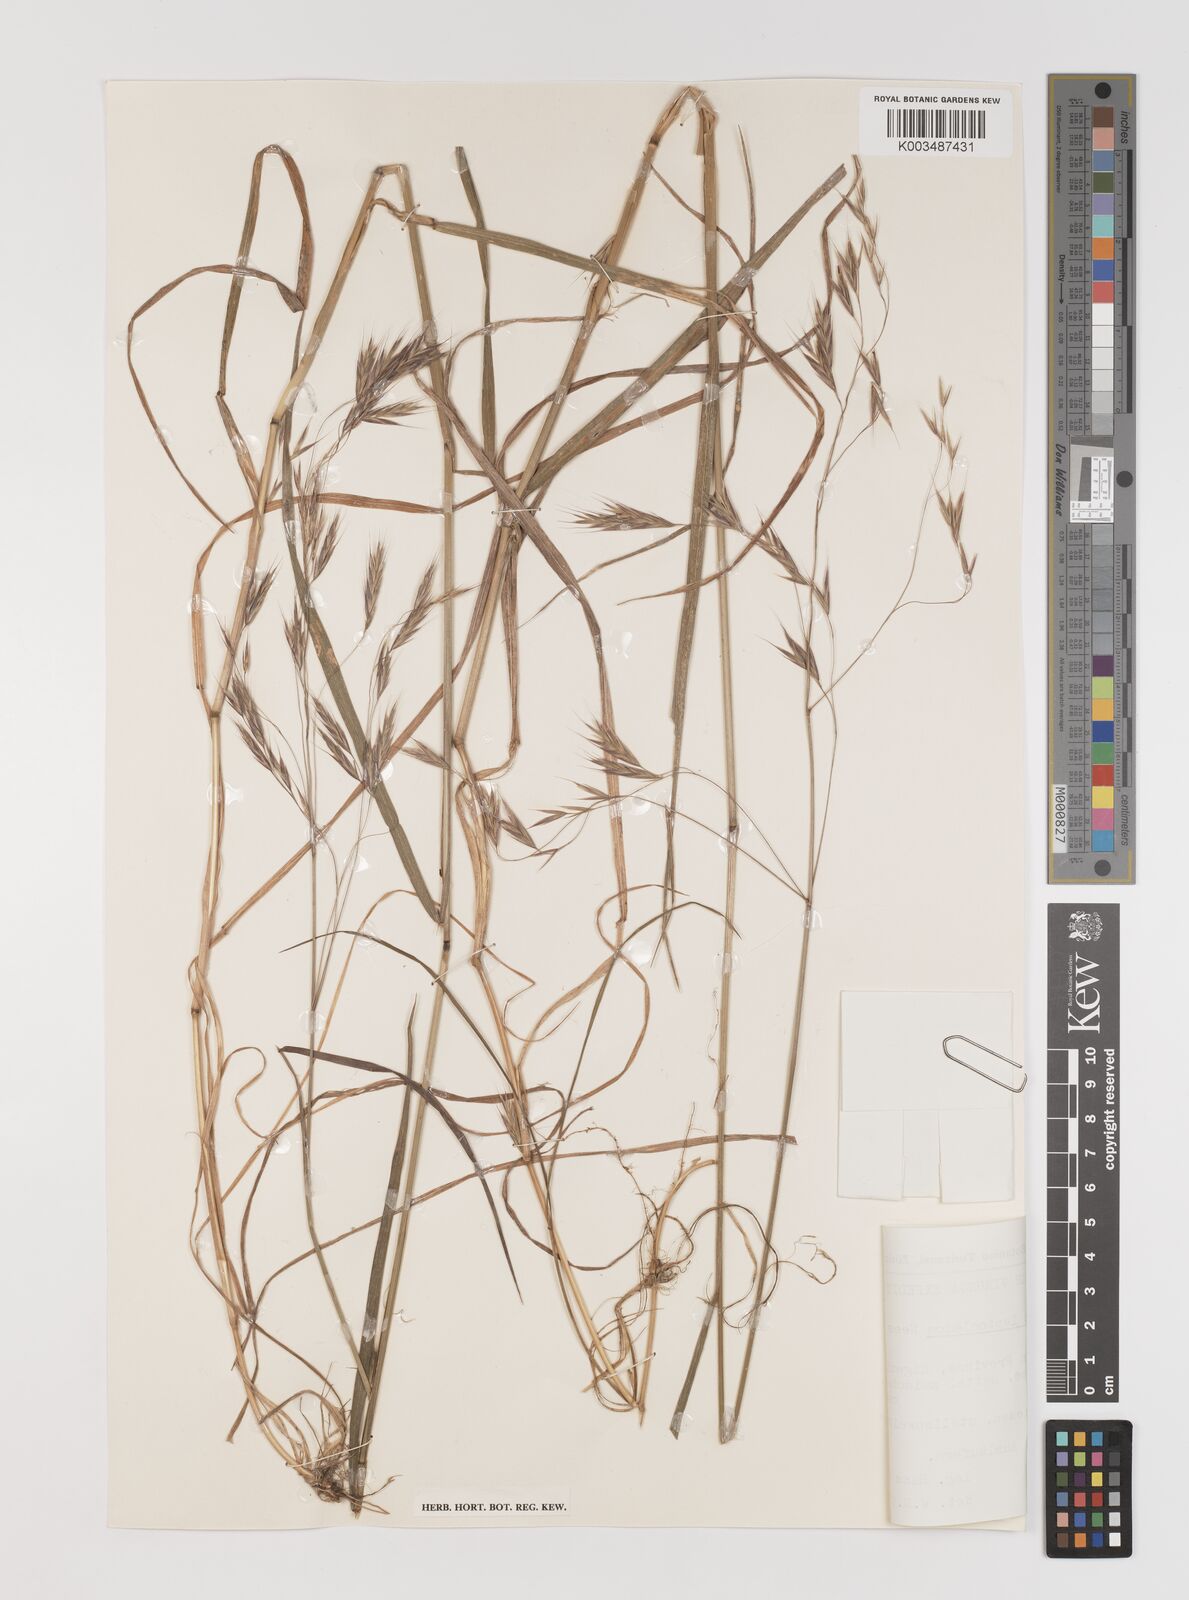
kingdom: Plantae
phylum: Tracheophyta
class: Liliopsida
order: Poales
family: Poaceae
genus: Bromus
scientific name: Bromus leptoclados
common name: Mountain bromegrass
